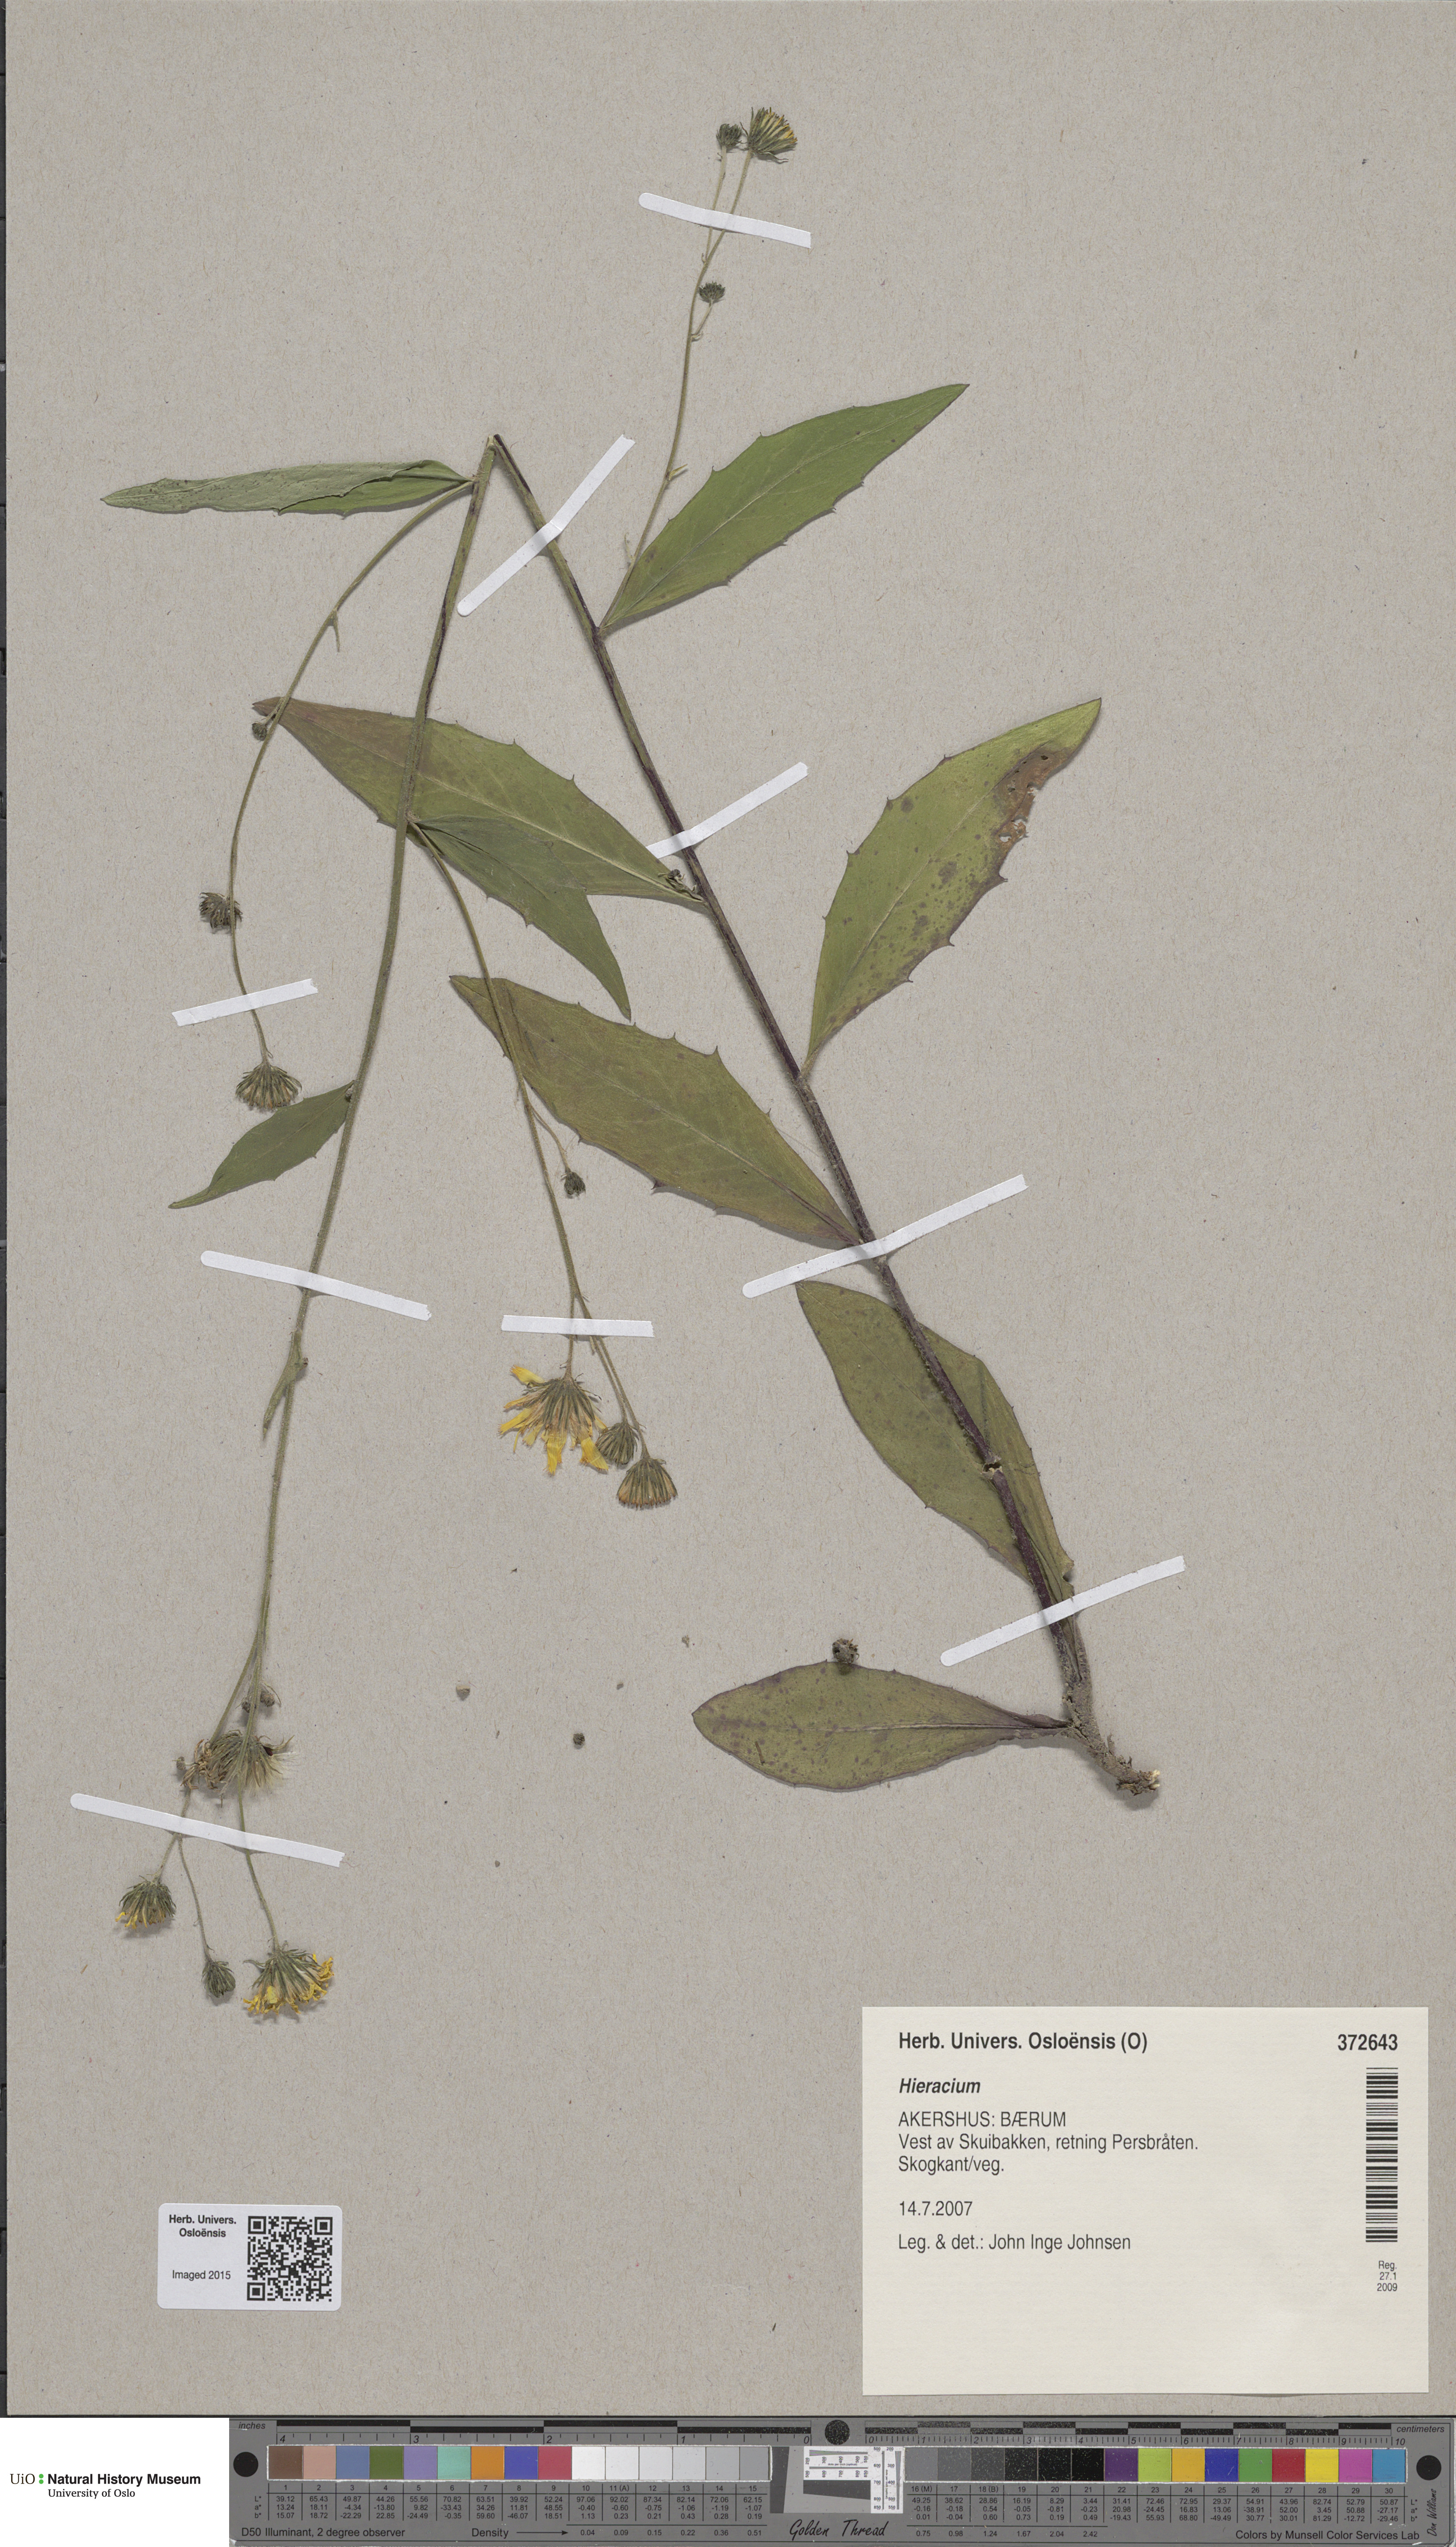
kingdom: Plantae
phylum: Tracheophyta
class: Magnoliopsida
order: Asterales
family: Asteraceae
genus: Hieracium
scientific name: Hieracium
